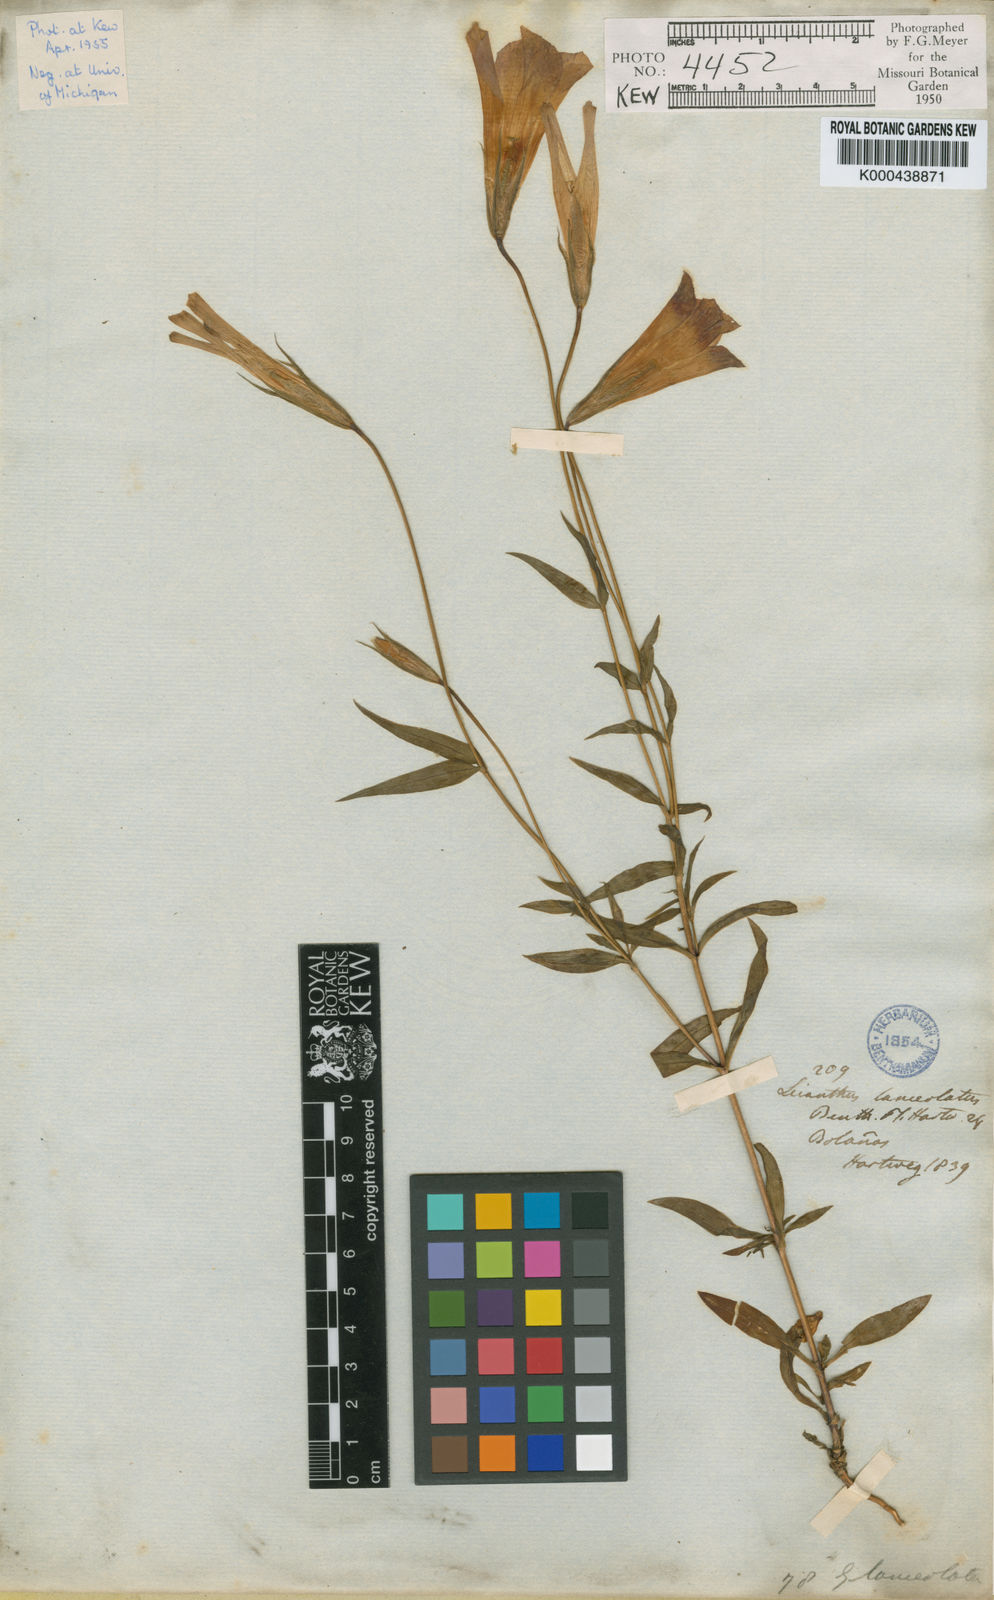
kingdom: Plantae
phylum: Tracheophyta
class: Magnoliopsida
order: Gentianales
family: Gentianaceae
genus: Gentianopsis
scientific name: Gentianopsis lanceolata
